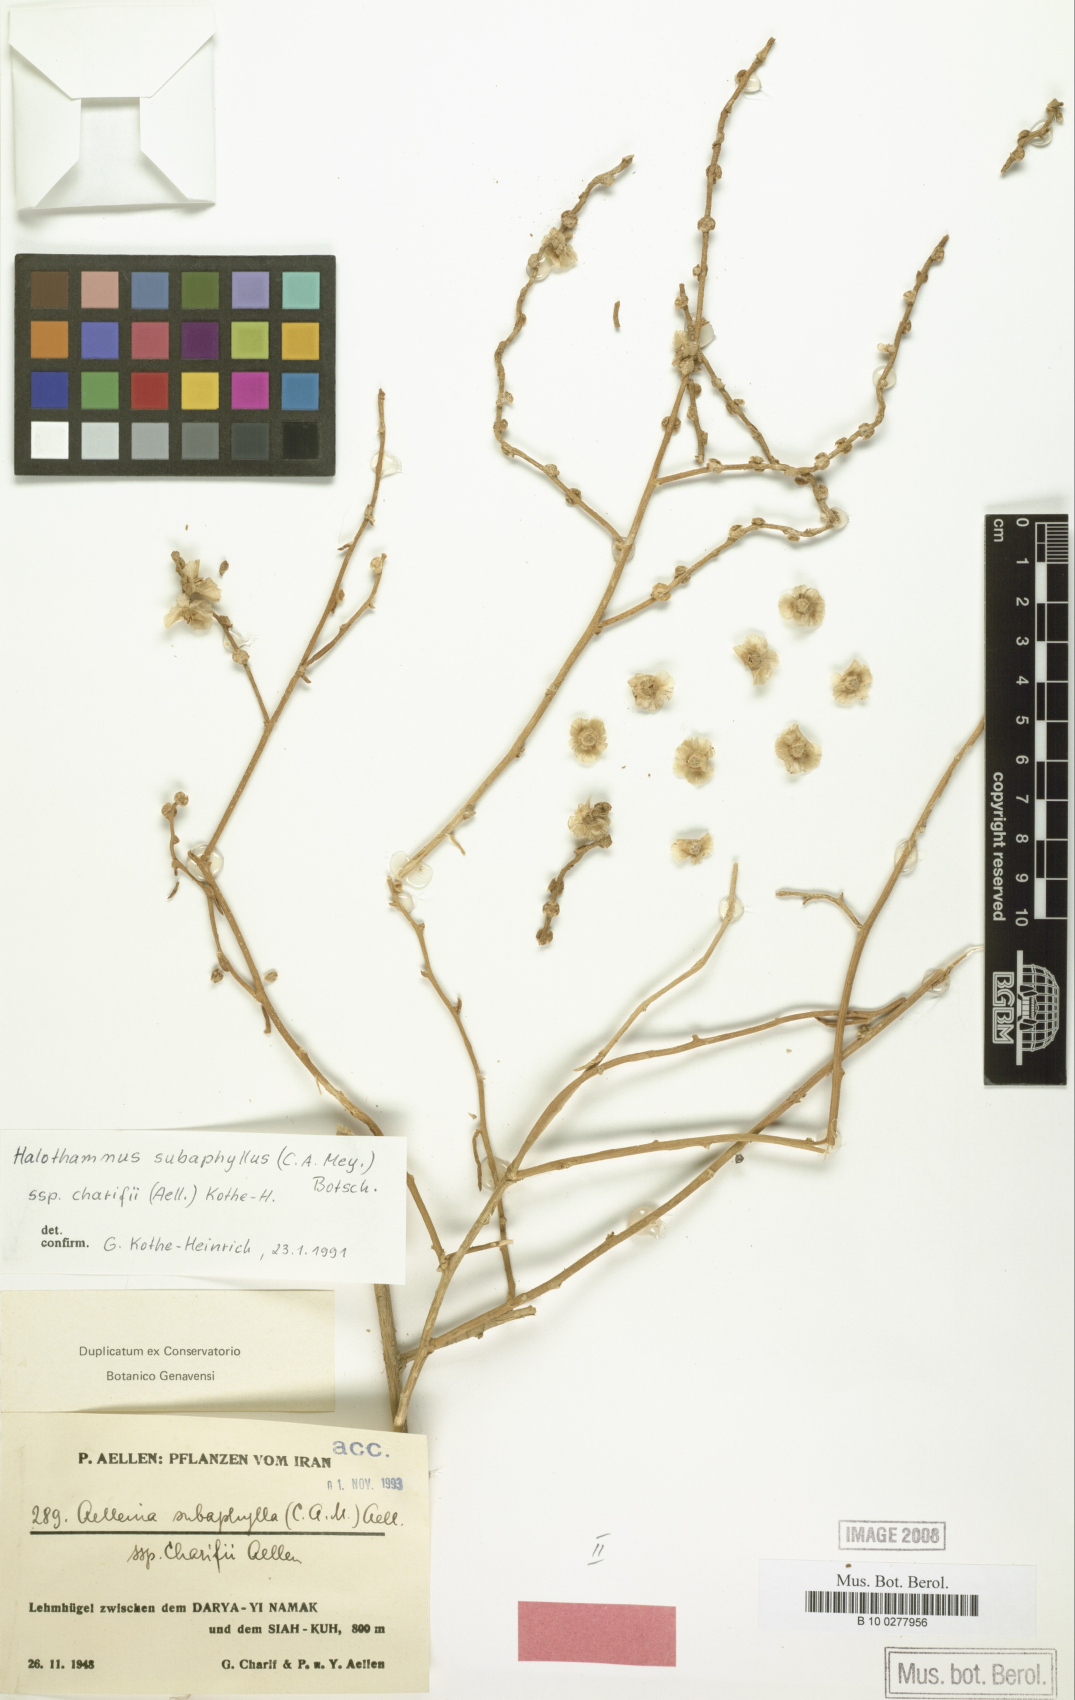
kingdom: Plantae
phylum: Tracheophyta
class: Magnoliopsida
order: Caryophyllales
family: Amaranthaceae
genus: Halothamnus
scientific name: Halothamnus subaphyllus
